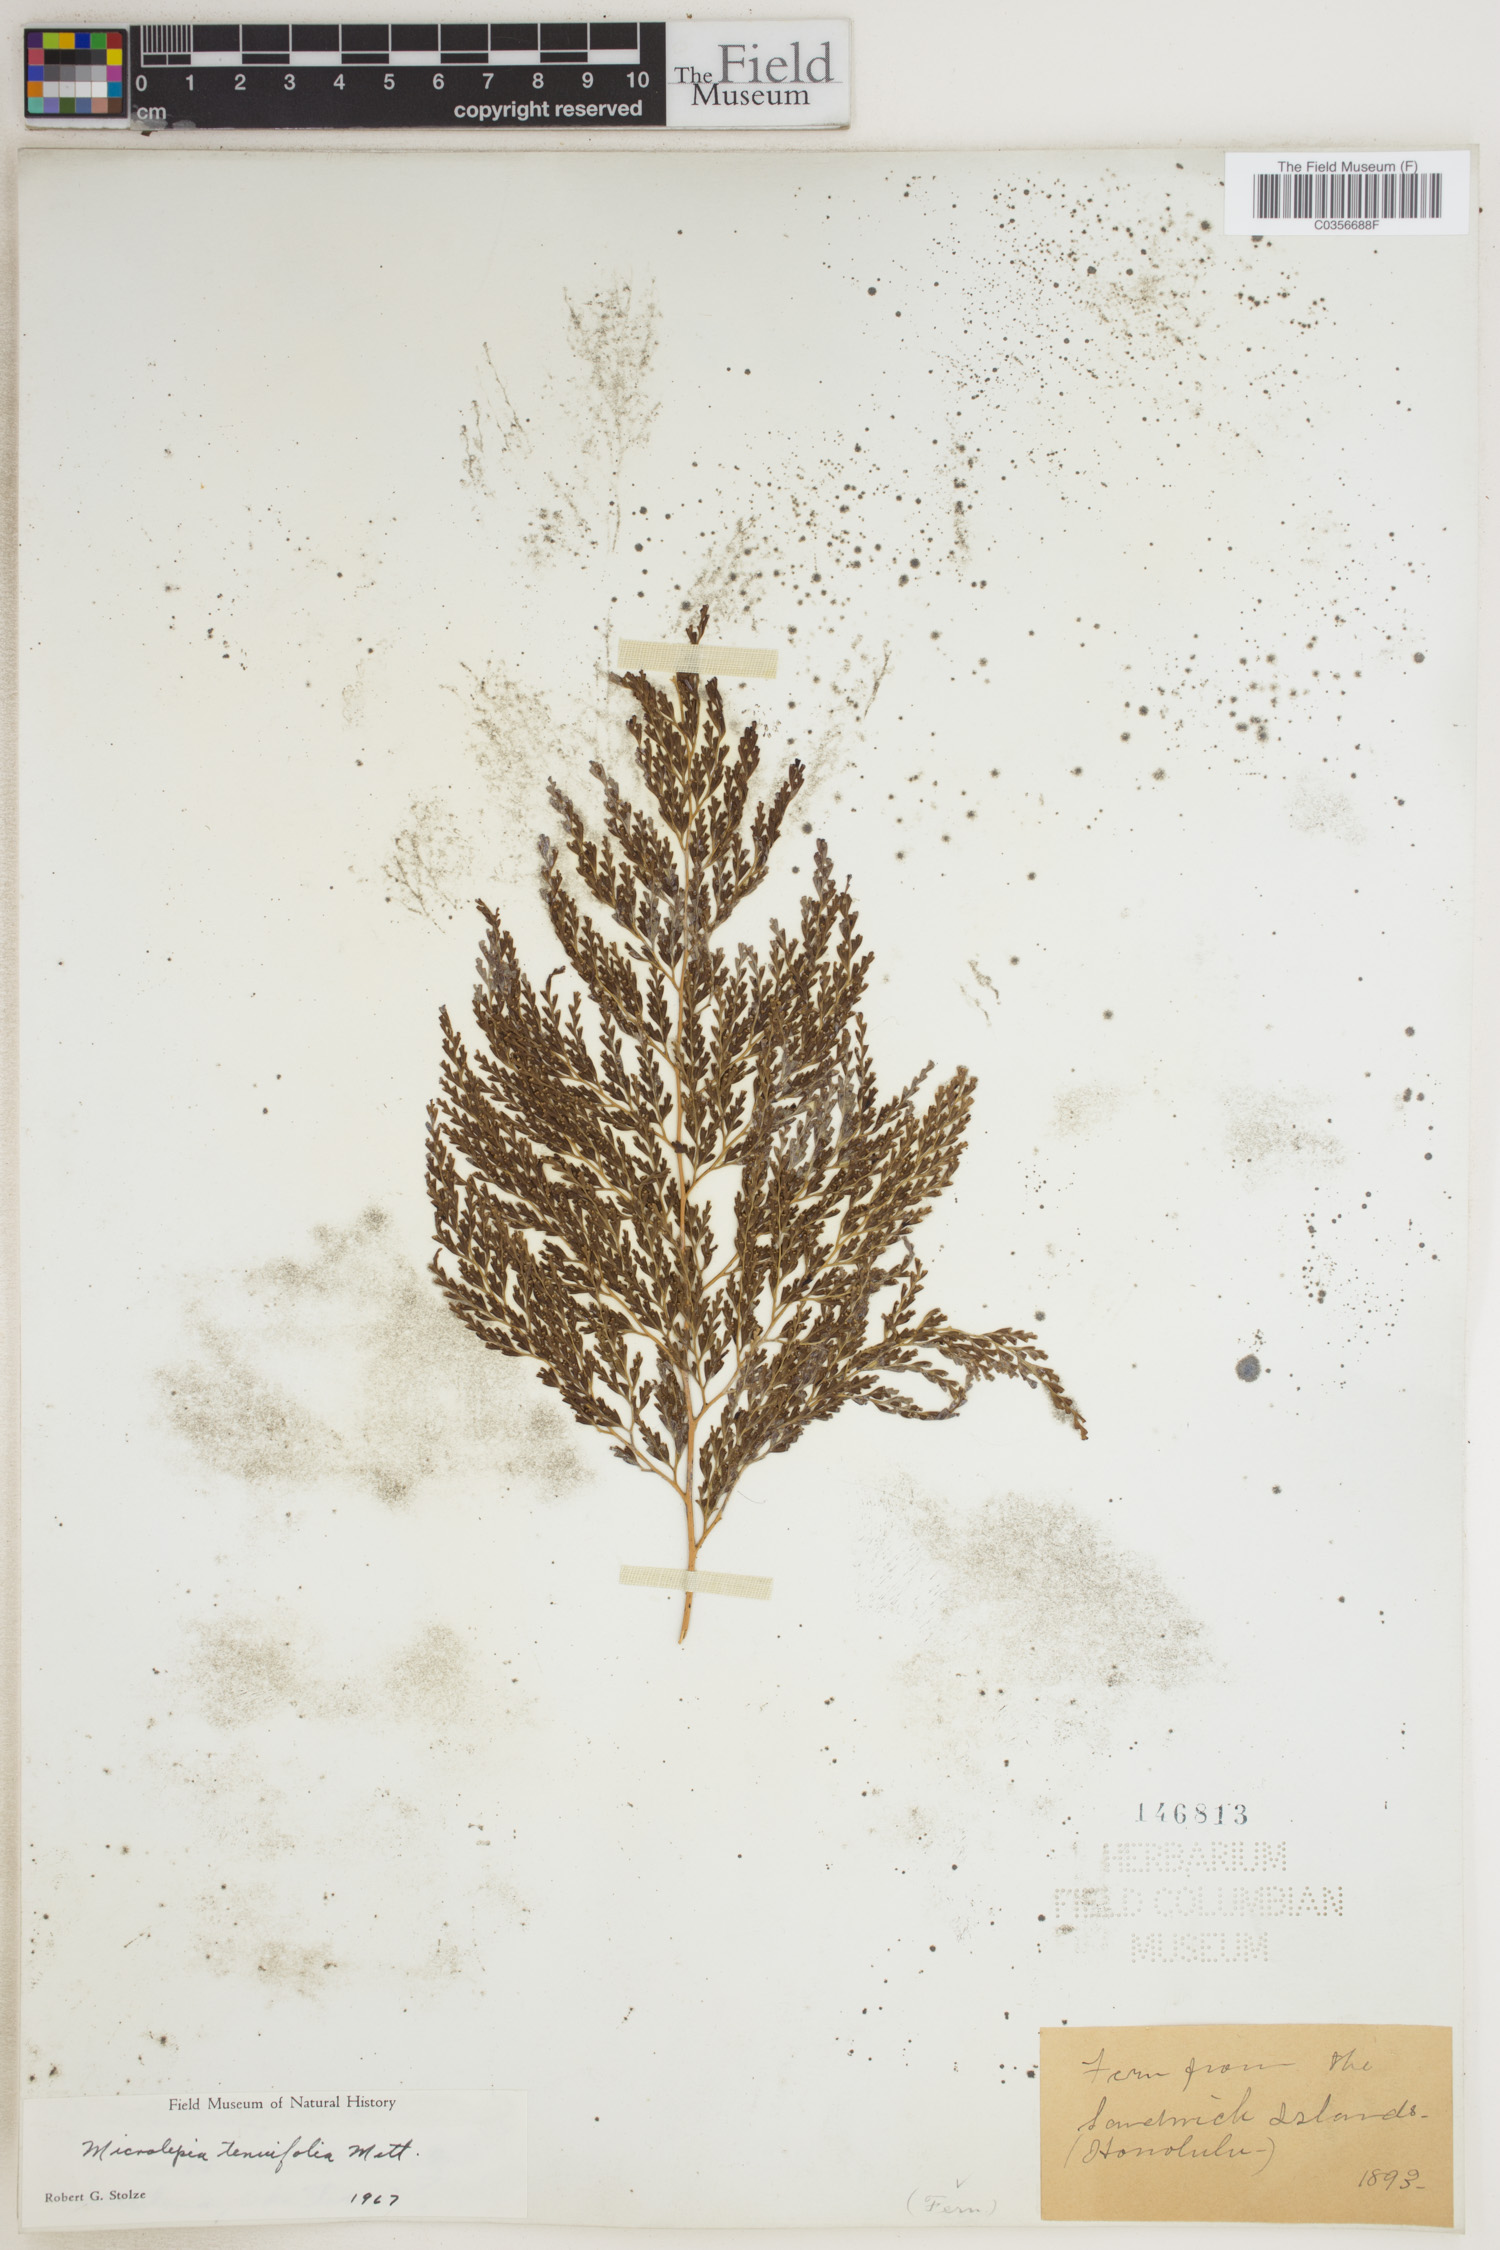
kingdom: Plantae
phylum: Tracheophyta
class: Polypodiopsida
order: Polypodiales
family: Lindsaeaceae
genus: Odontosoria
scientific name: Odontosoria chinensis
